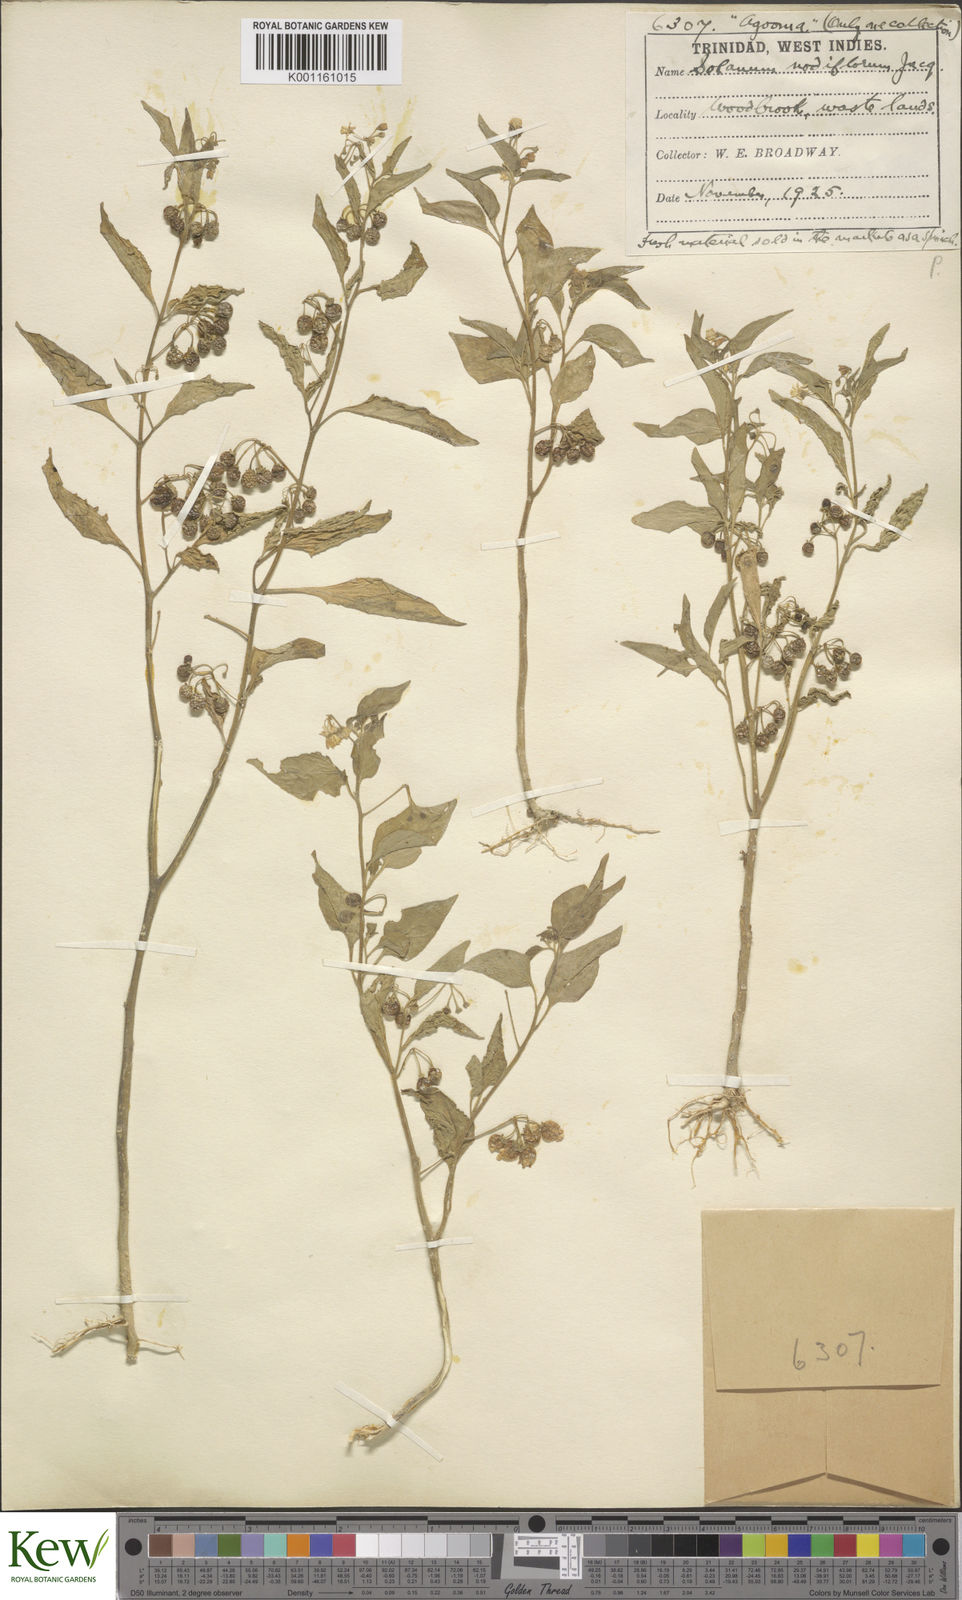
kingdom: Plantae
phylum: Tracheophyta
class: Magnoliopsida
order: Solanales
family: Solanaceae
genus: Solanum
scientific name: Solanum americanum
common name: American black nightshade
